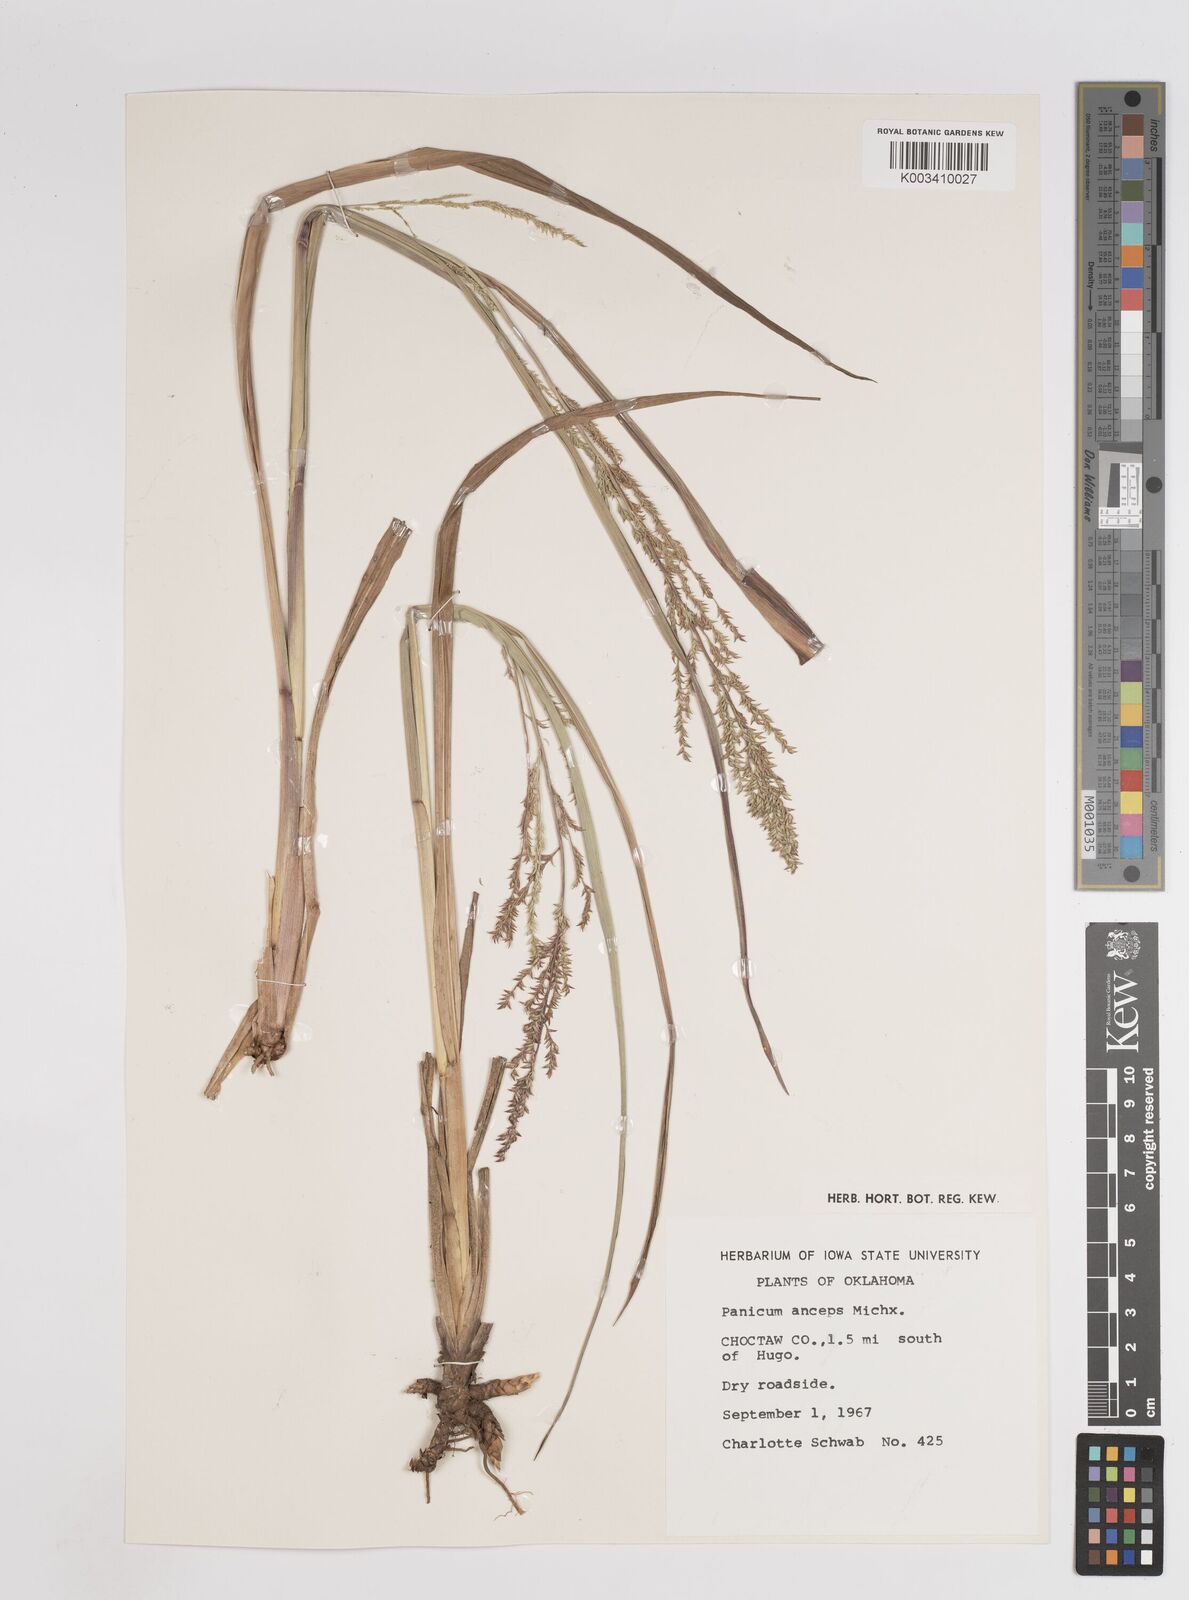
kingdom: Plantae
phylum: Tracheophyta
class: Liliopsida
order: Poales
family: Poaceae
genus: Coleataenia
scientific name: Coleataenia anceps
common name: Beaked panic grass
